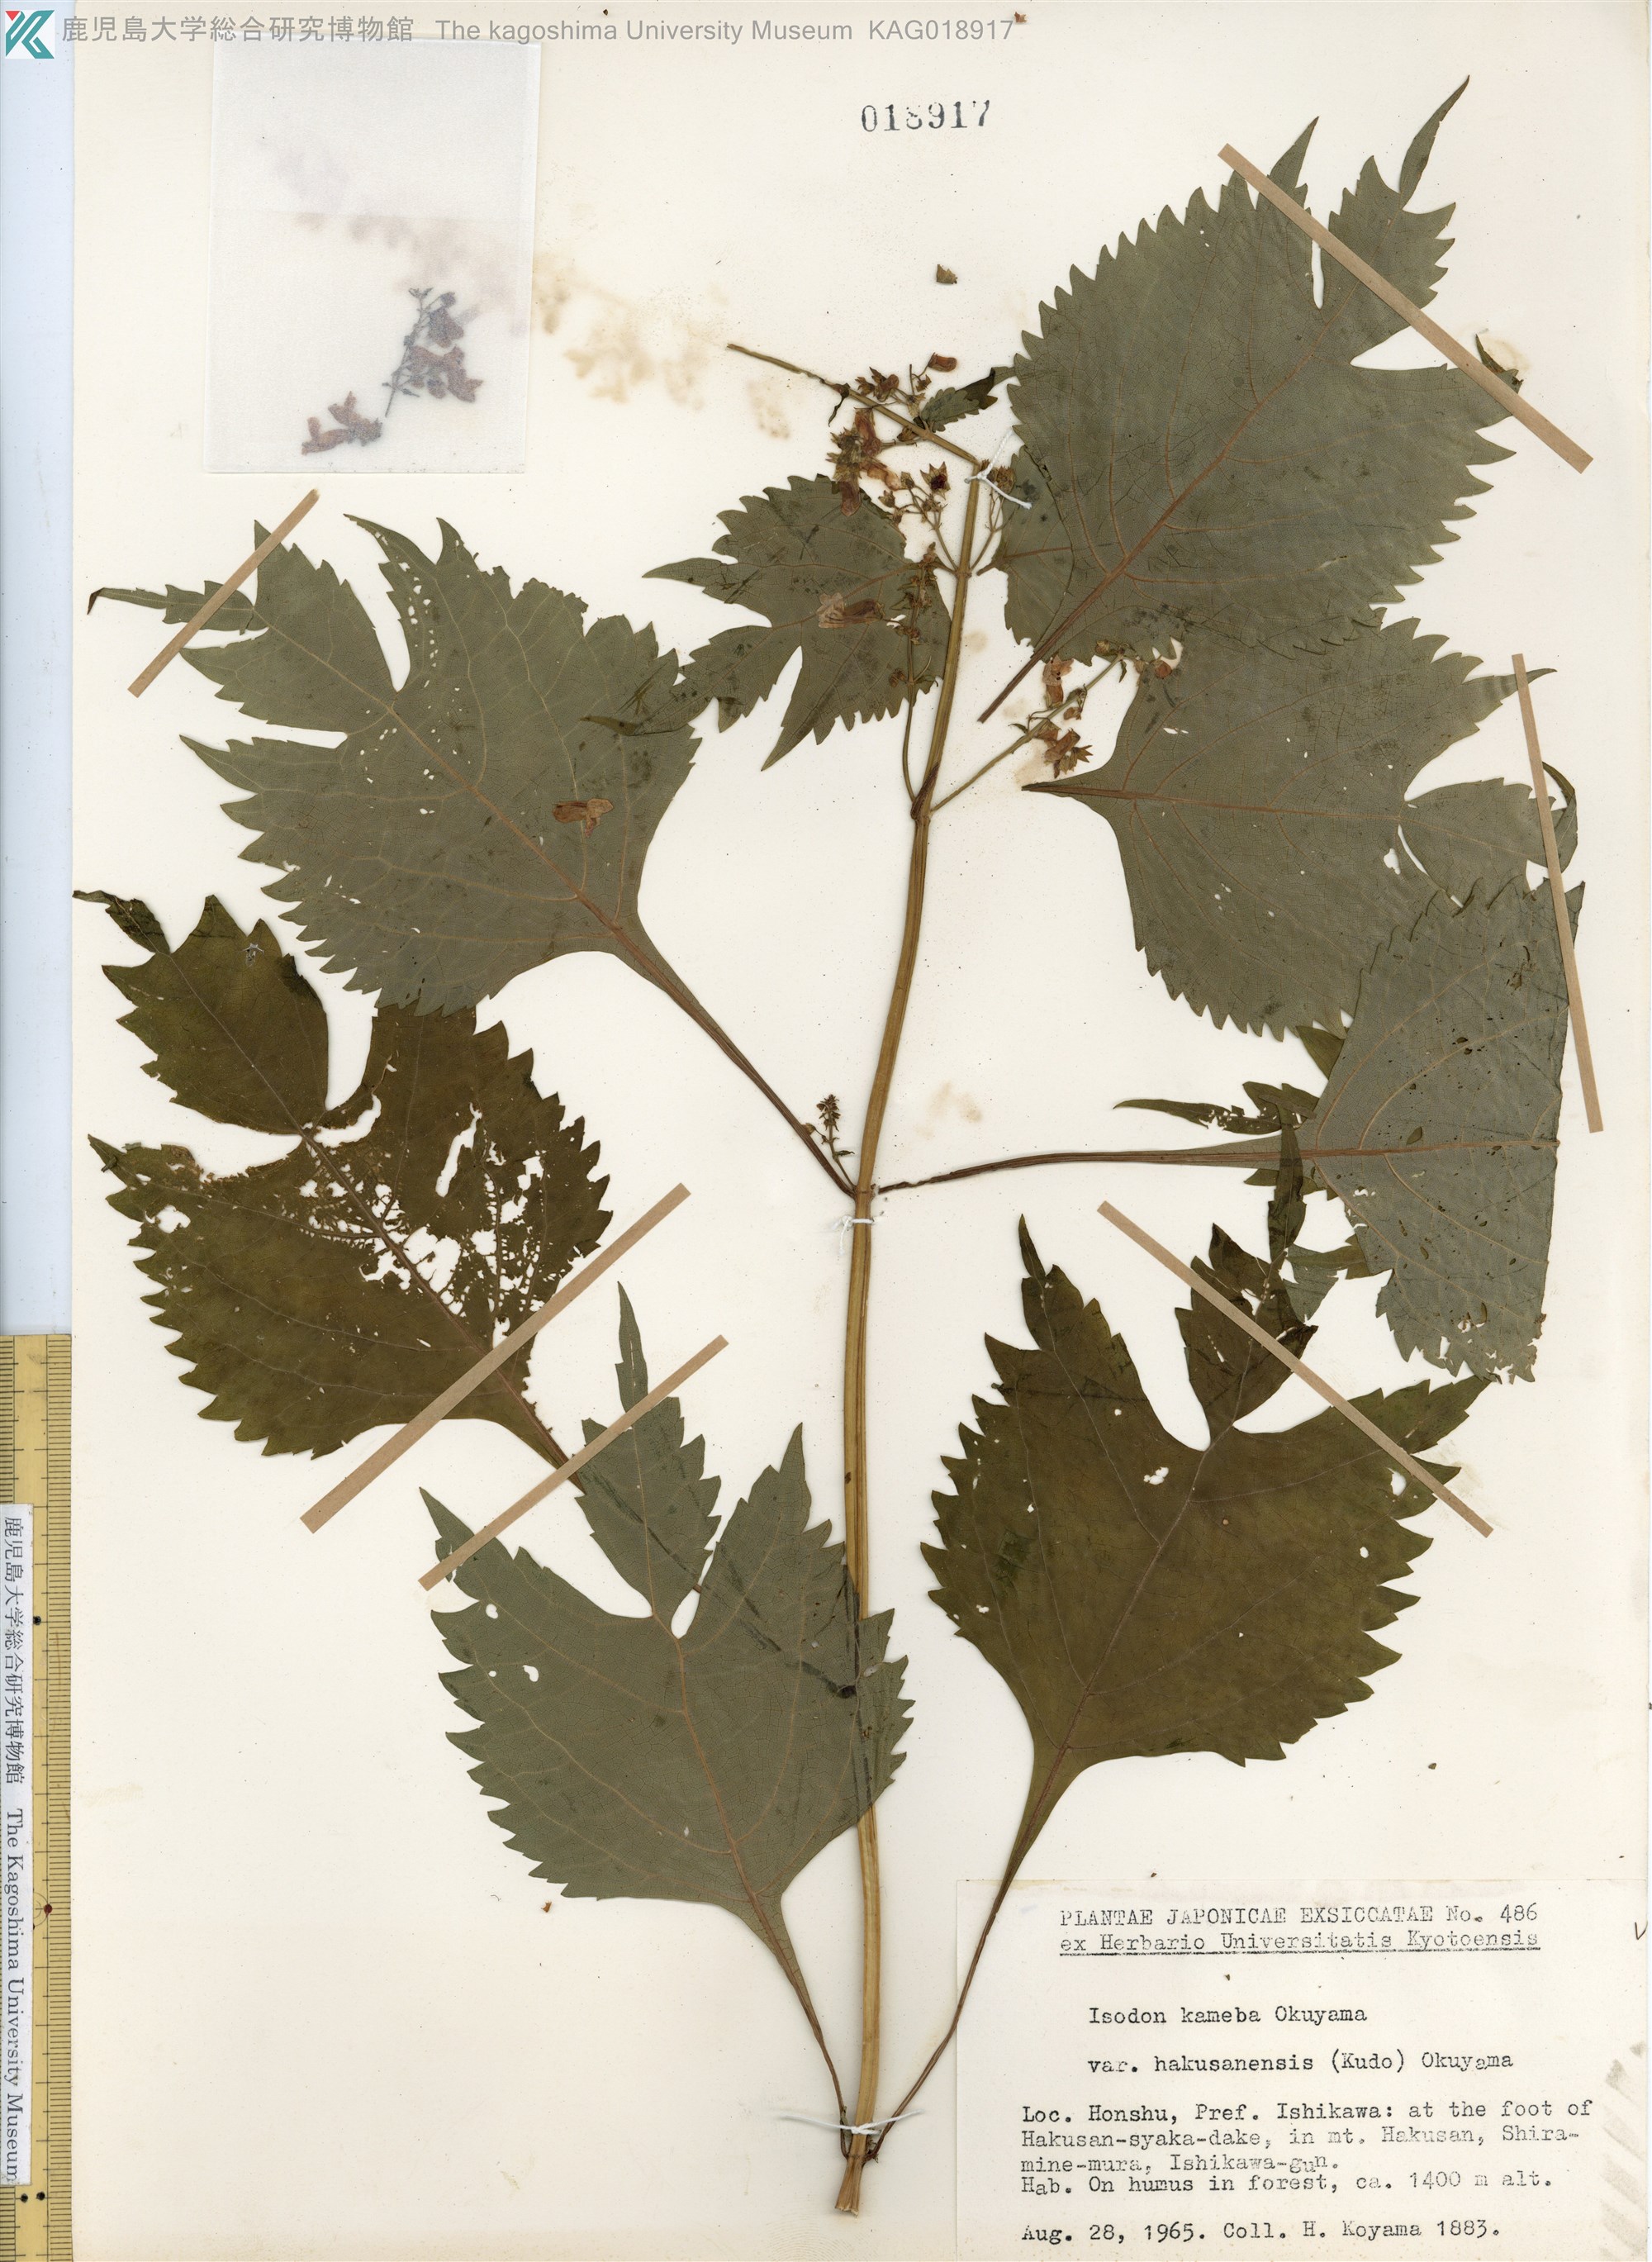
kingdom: Plantae
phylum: Tracheophyta
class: Magnoliopsida
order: Lamiales
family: Lamiaceae
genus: Isodon
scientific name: Isodon umbrosus
